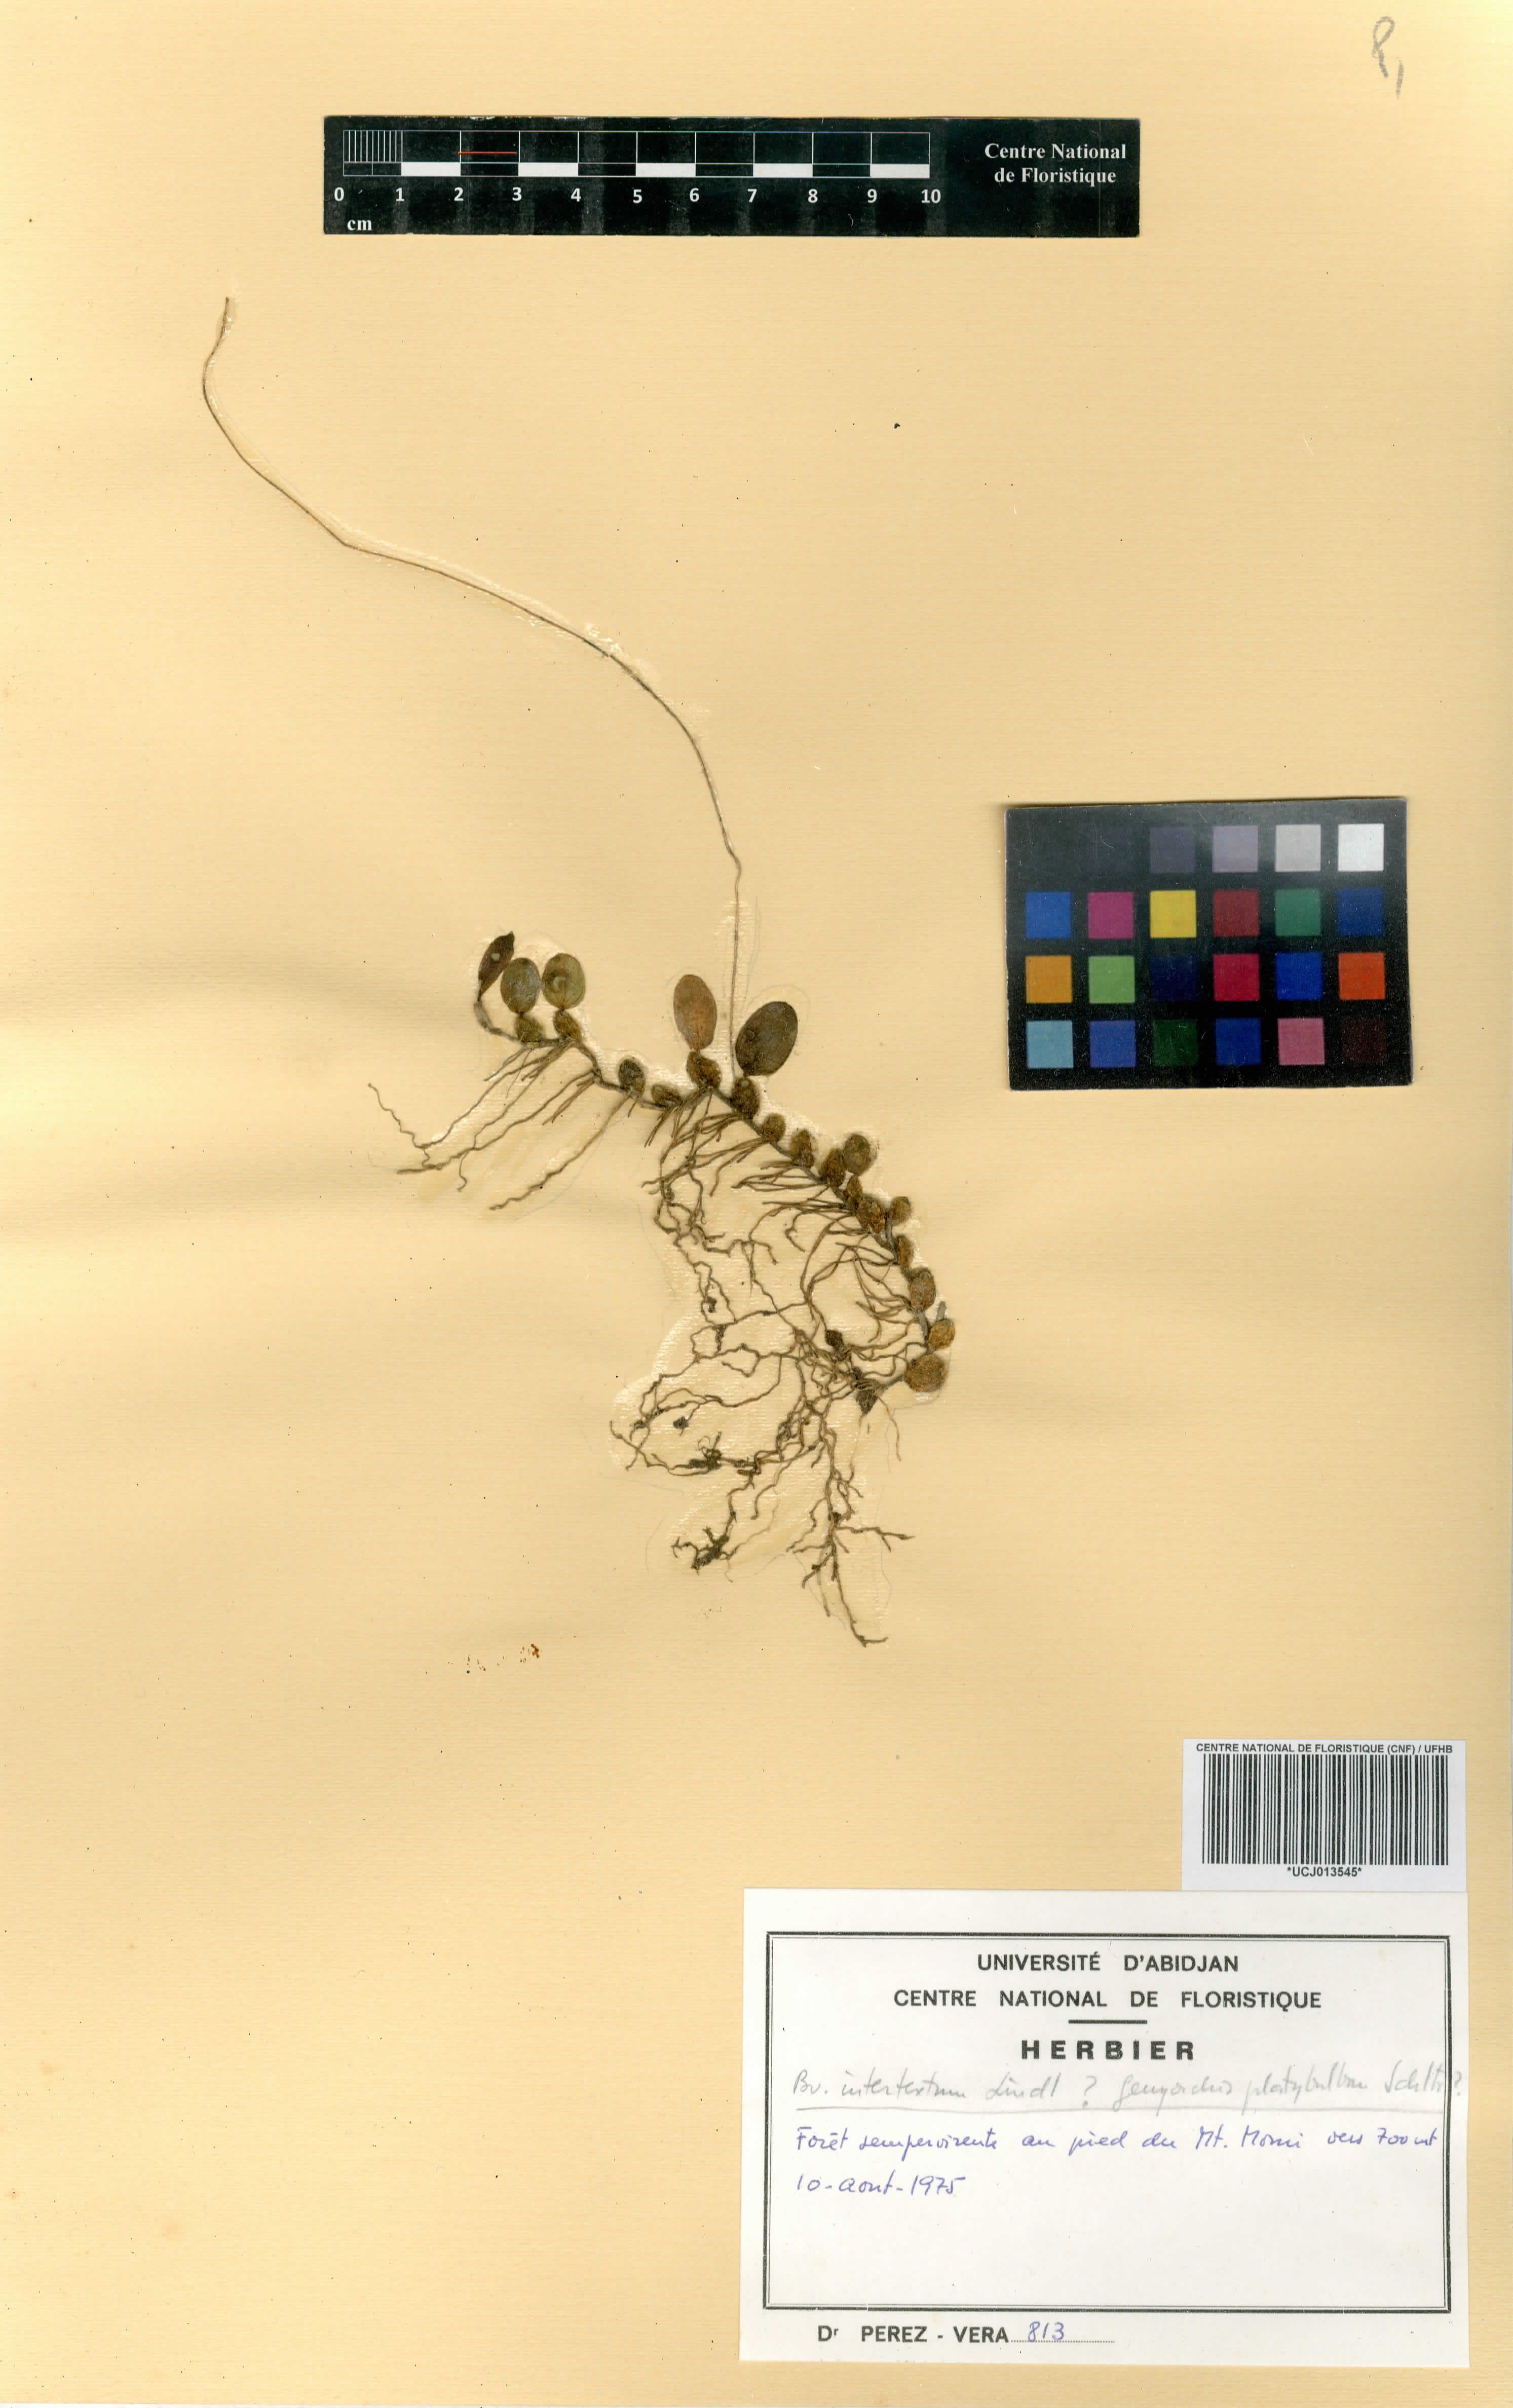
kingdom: Plantae
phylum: Tracheophyta
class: Liliopsida
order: Asparagales
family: Orchidaceae
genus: Bulbophyllum
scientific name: Bulbophyllum intertextum
